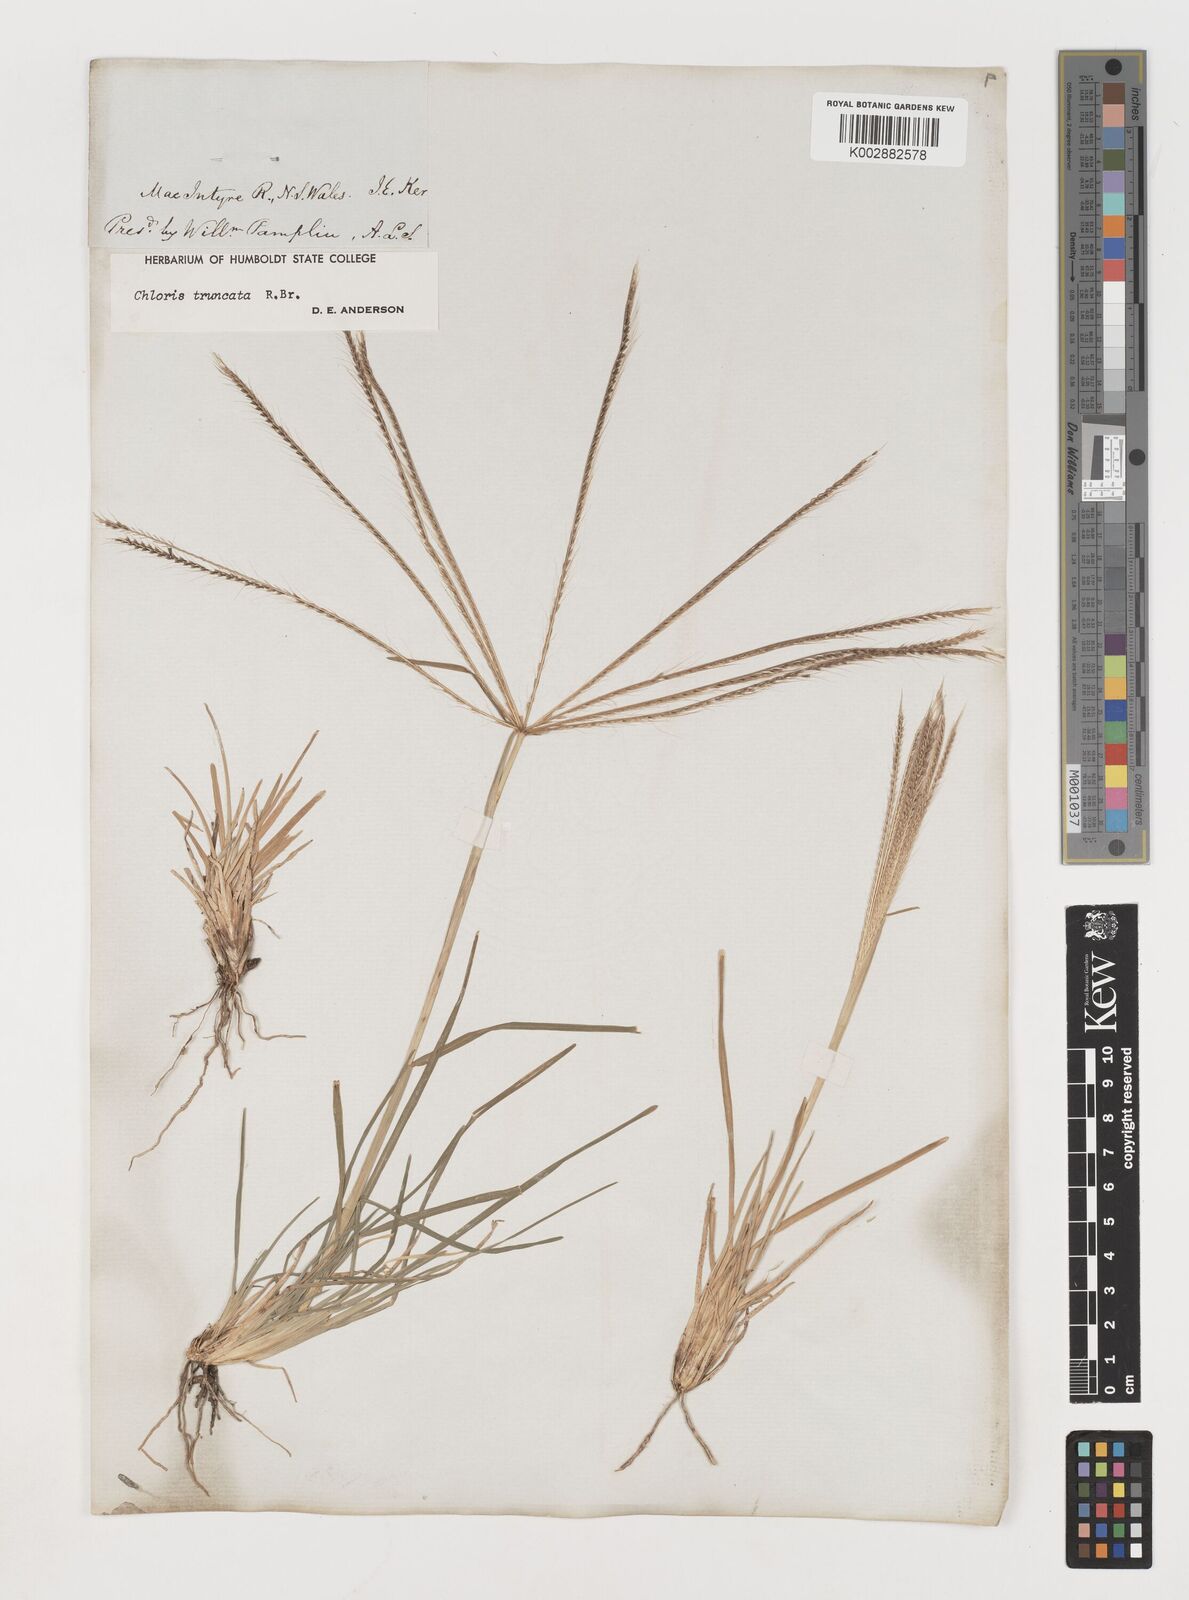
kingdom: Plantae
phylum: Tracheophyta
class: Liliopsida
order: Poales
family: Poaceae
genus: Chloris
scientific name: Chloris truncata
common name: Windmill-grass
